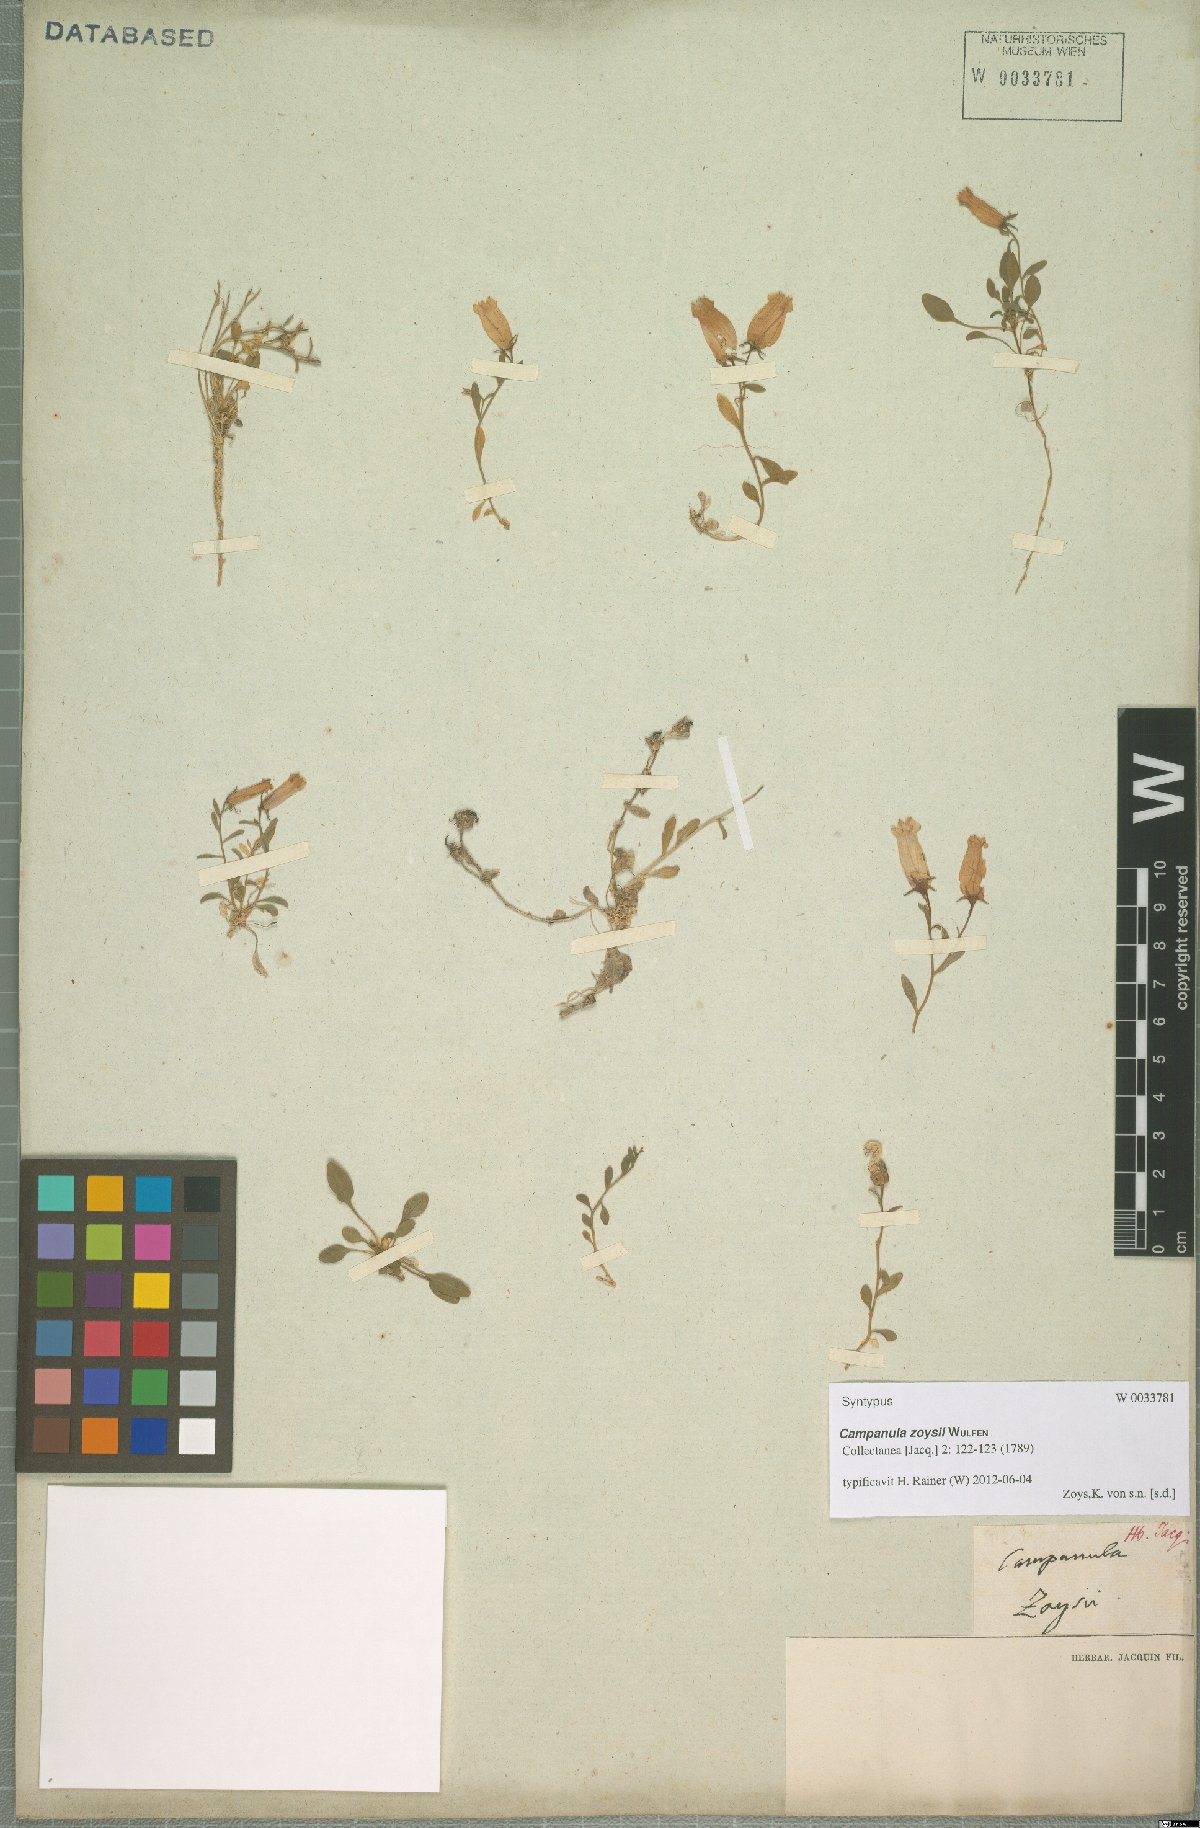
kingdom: Plantae
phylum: Tracheophyta
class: Magnoliopsida
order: Asterales
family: Campanulaceae
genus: Favratia
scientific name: Favratia zoysii
